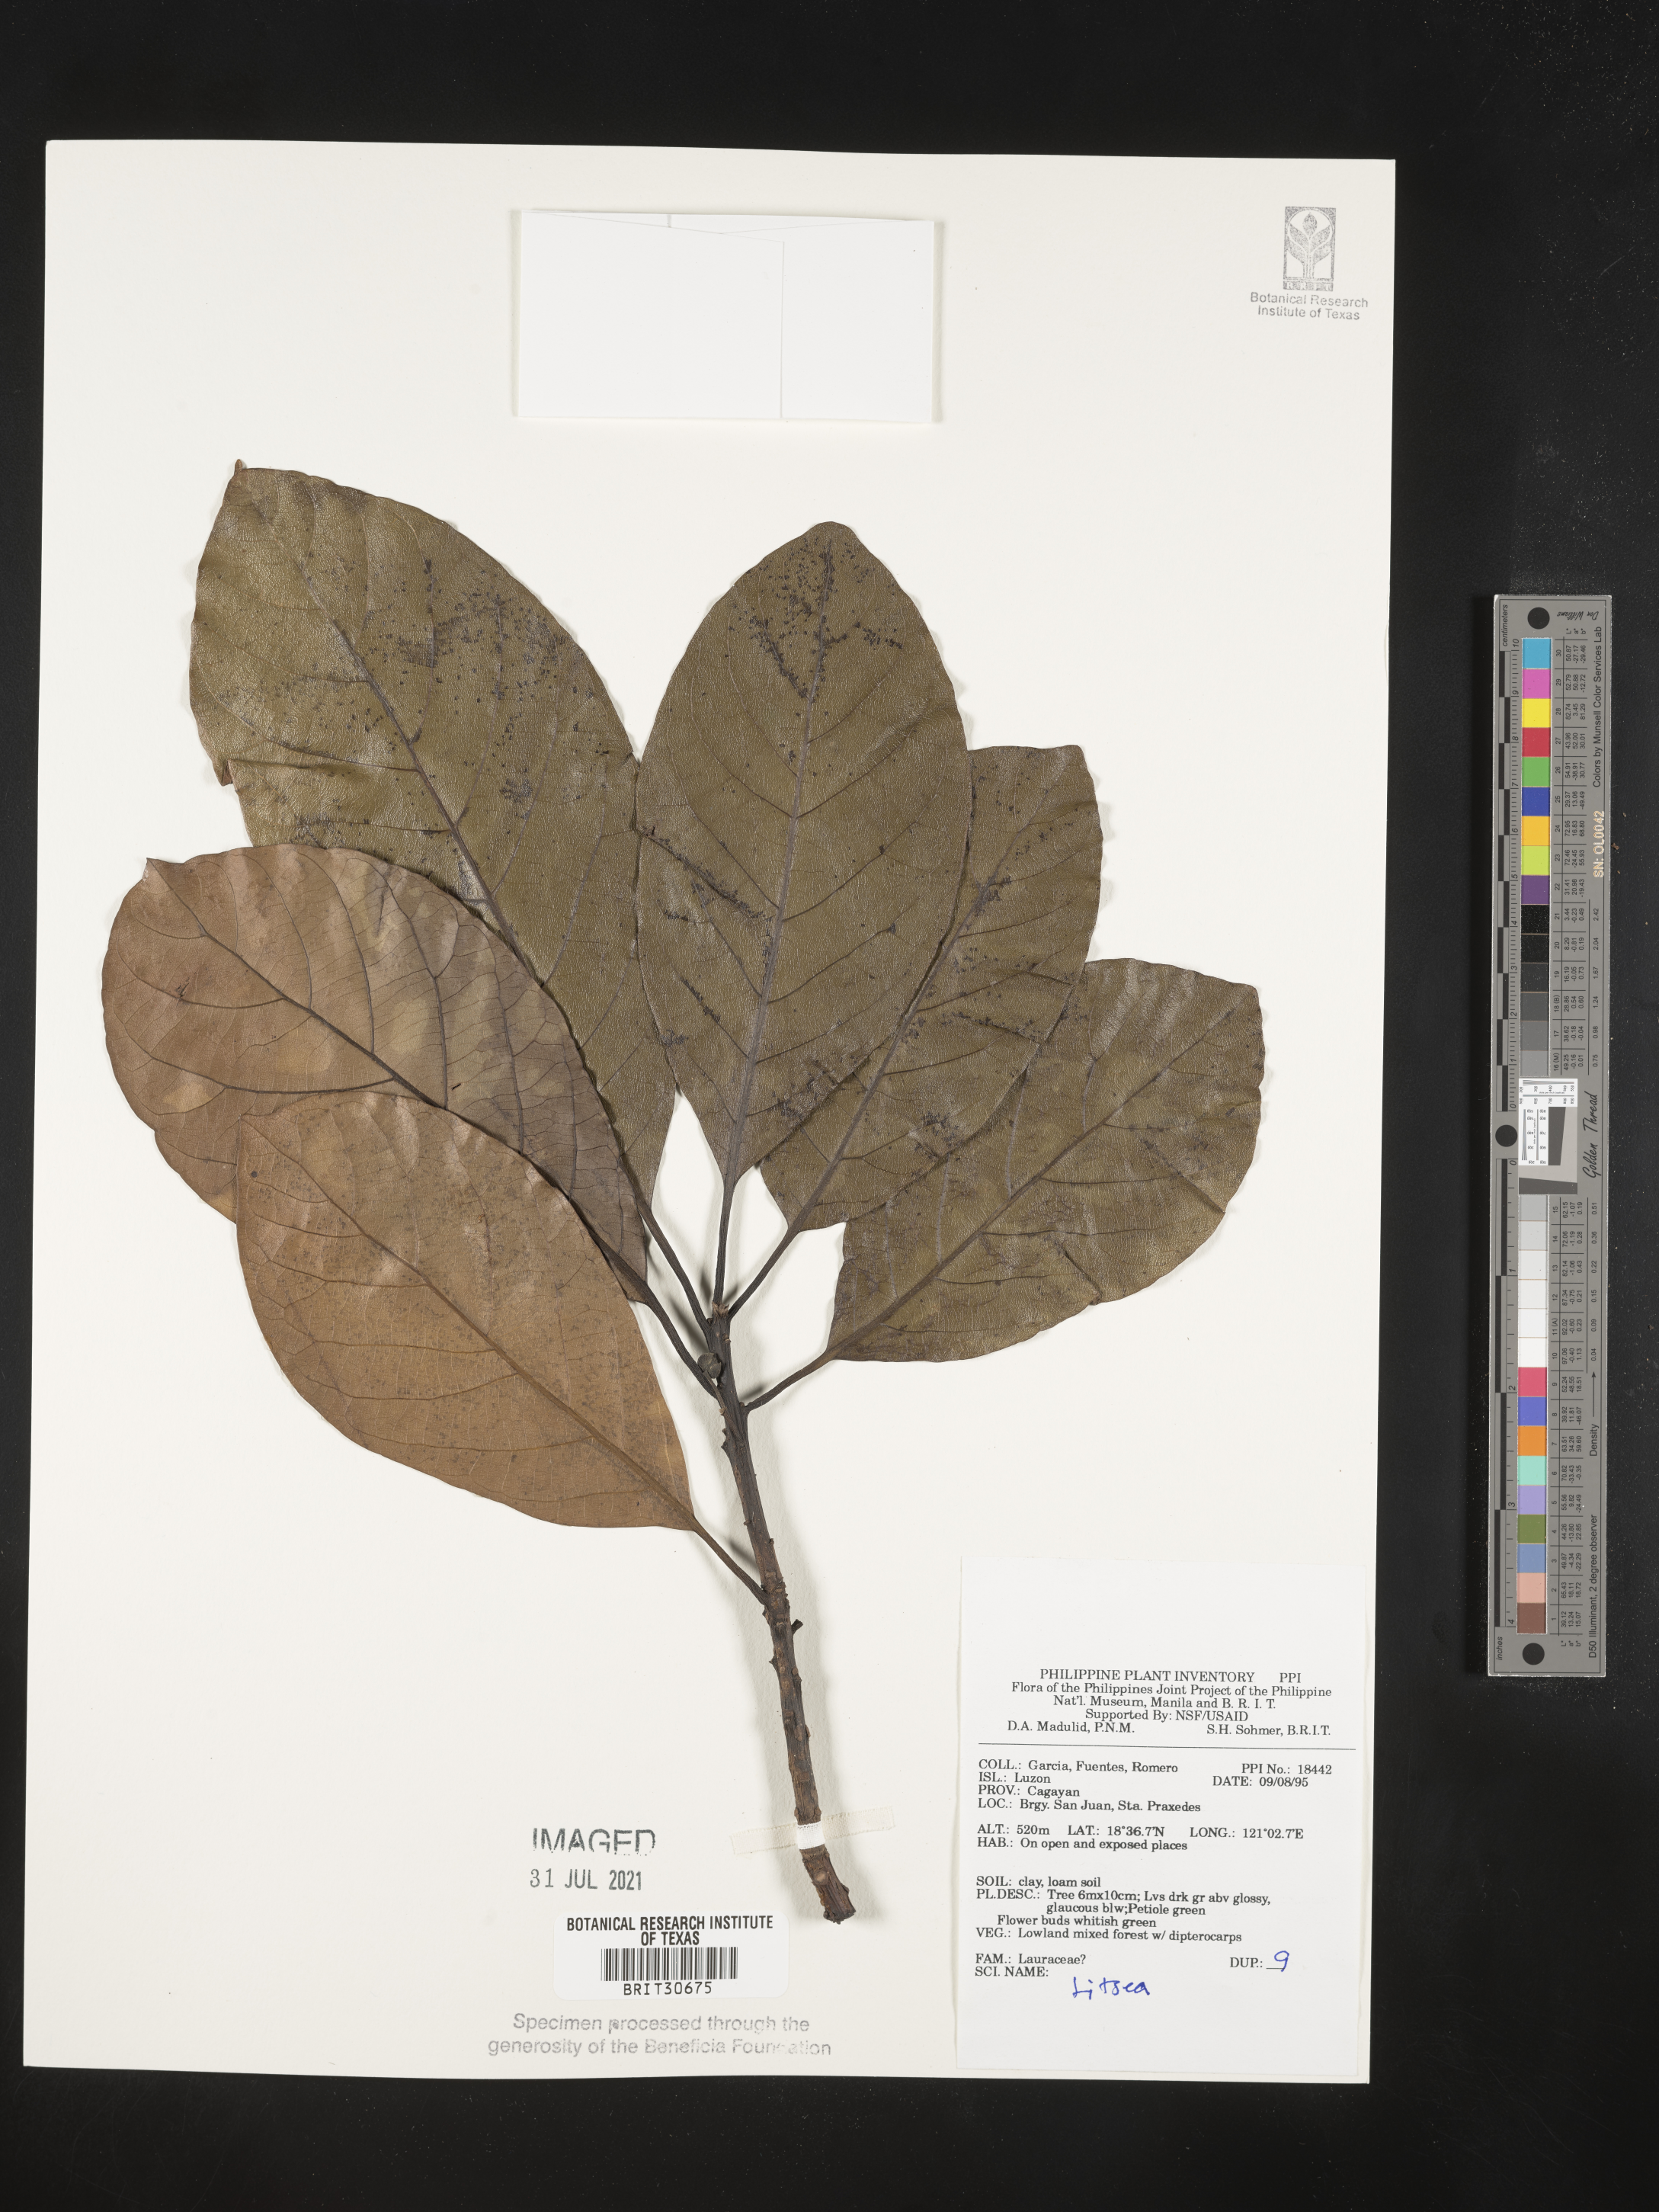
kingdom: Plantae
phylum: Tracheophyta
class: Magnoliopsida
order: Laurales
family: Lauraceae
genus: Litsea
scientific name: Litsea
